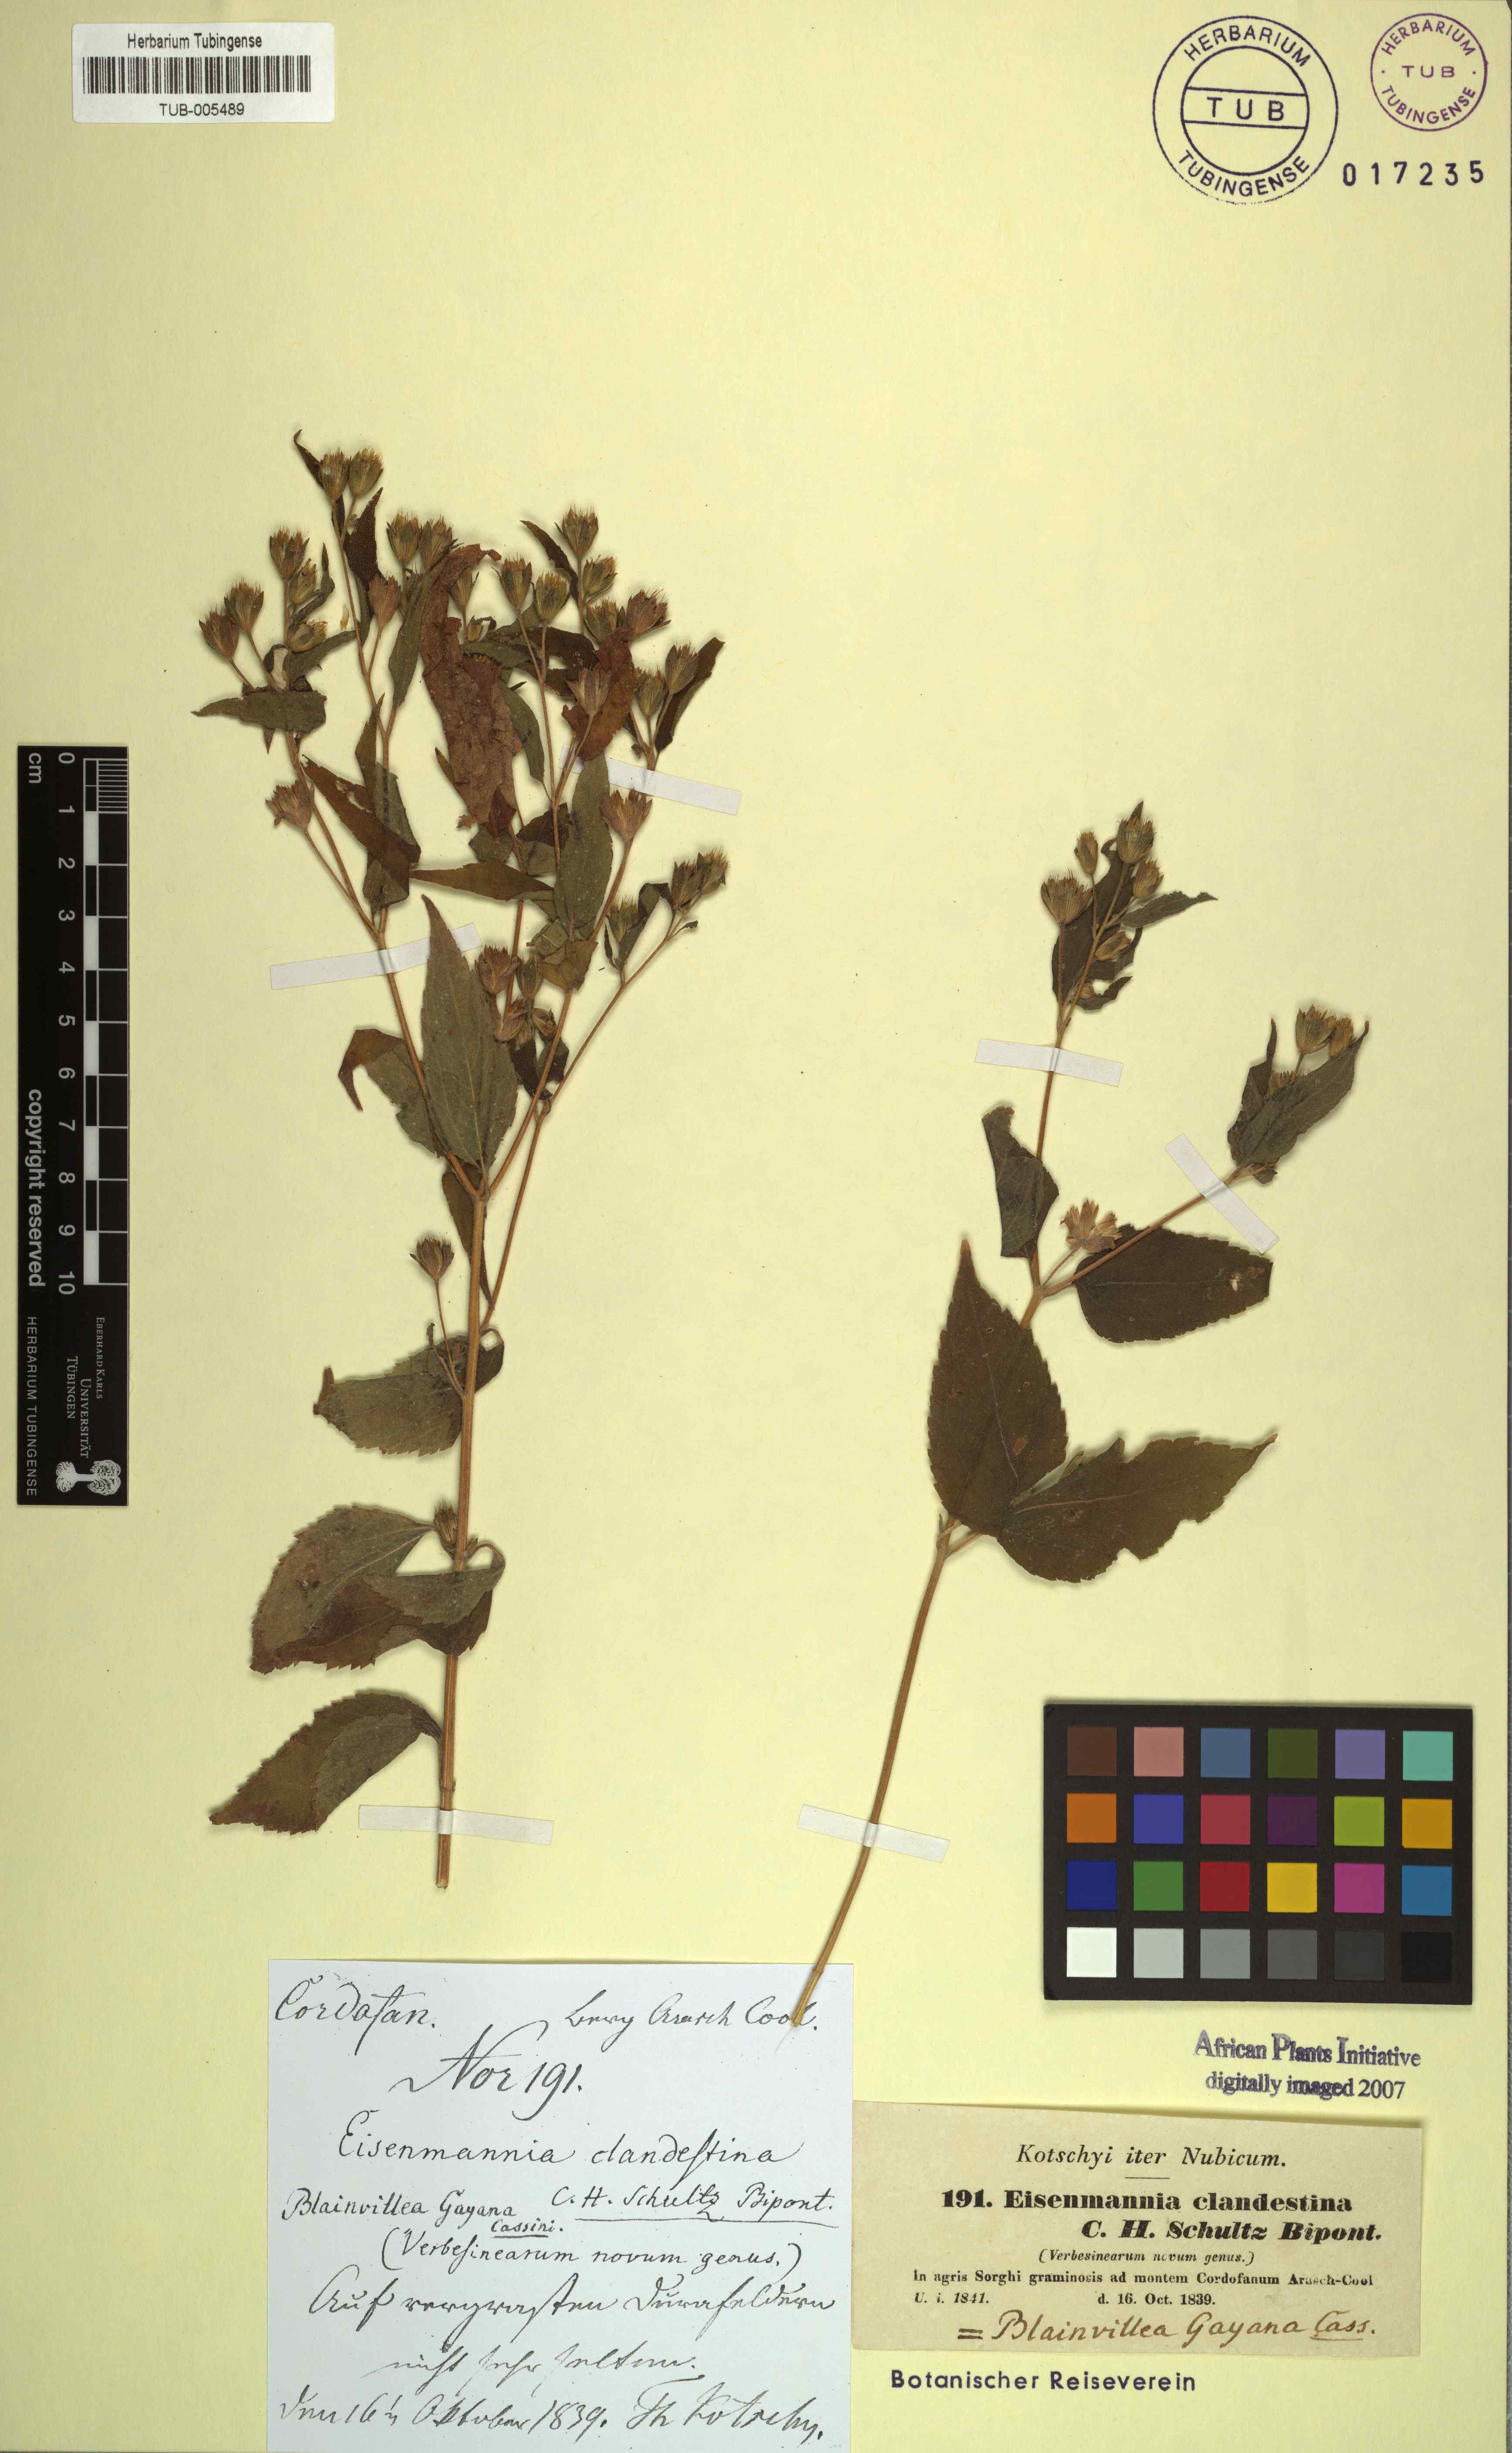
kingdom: Plantae
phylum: Tracheophyta
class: Magnoliopsida
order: Asterales
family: Asteraceae
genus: Blainvillea
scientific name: Blainvillea gayana
